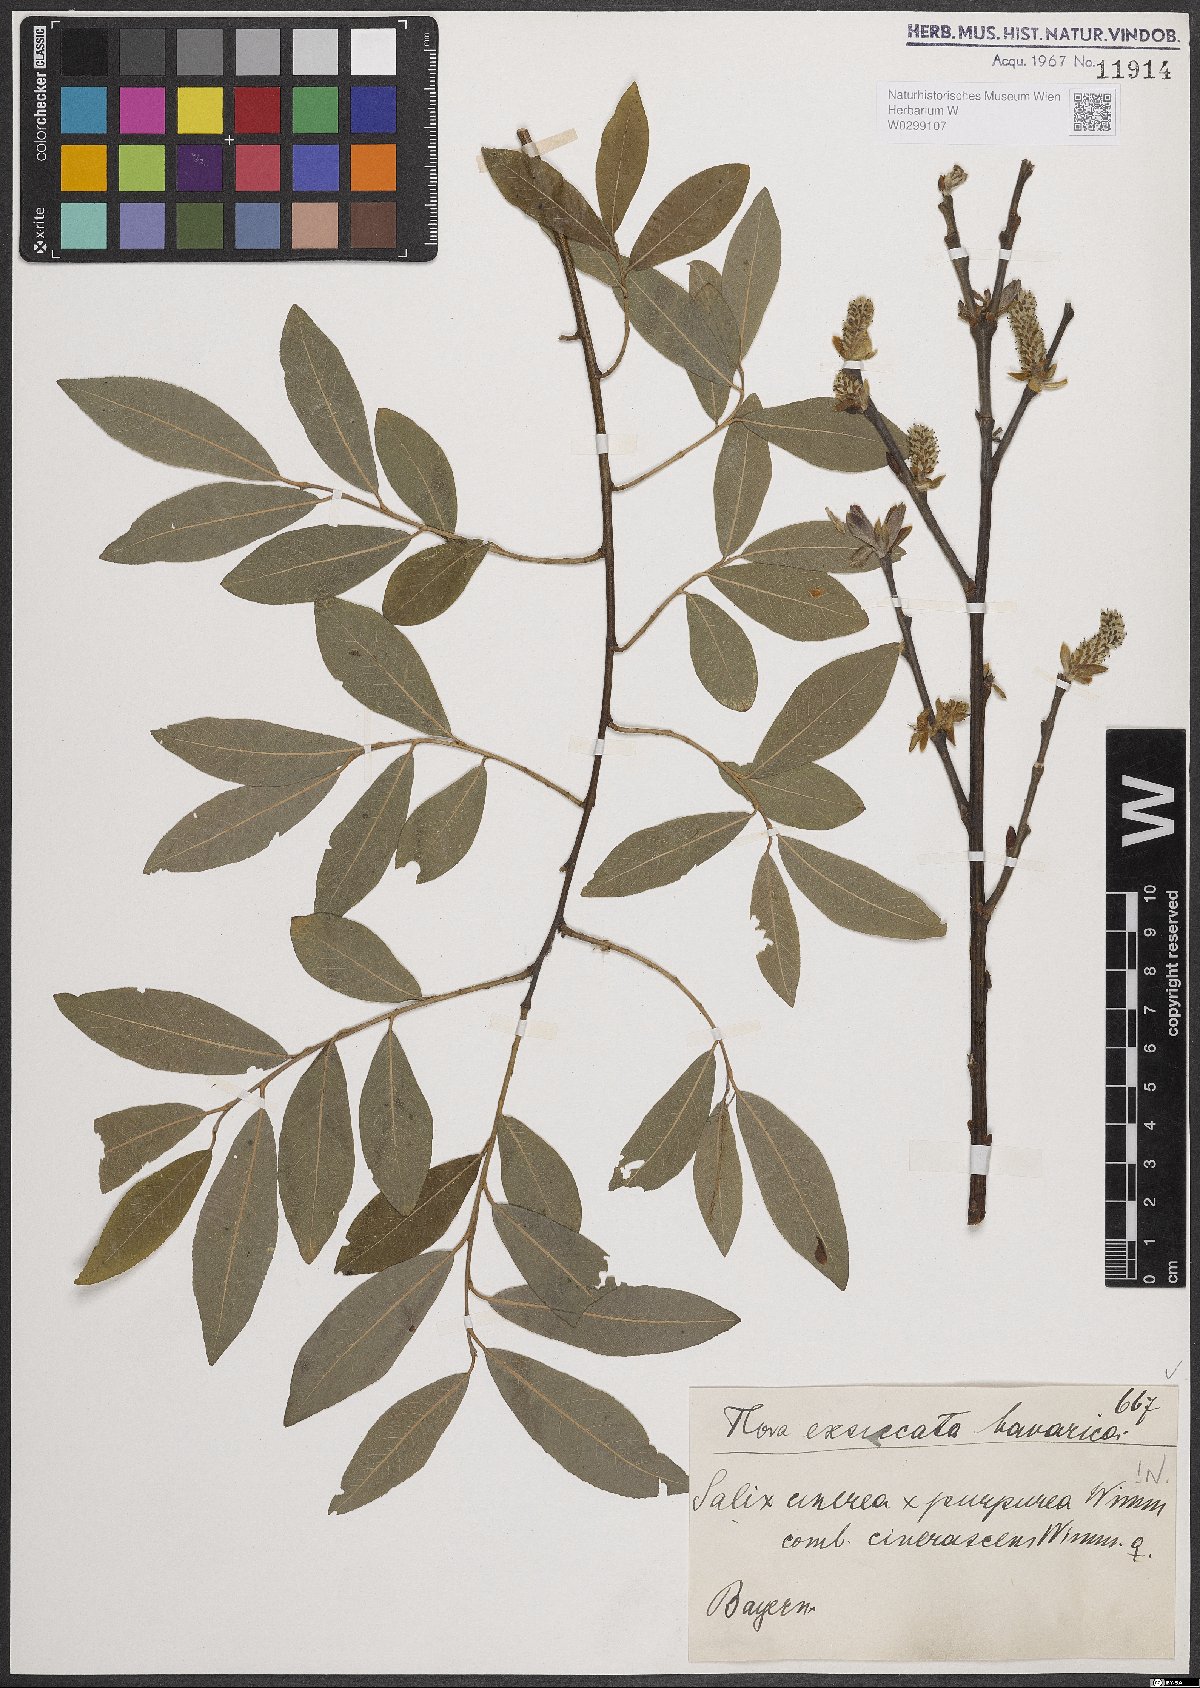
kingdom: Plantae
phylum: Tracheophyta
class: Magnoliopsida
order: Malpighiales
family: Salicaceae
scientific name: Salicaceae
